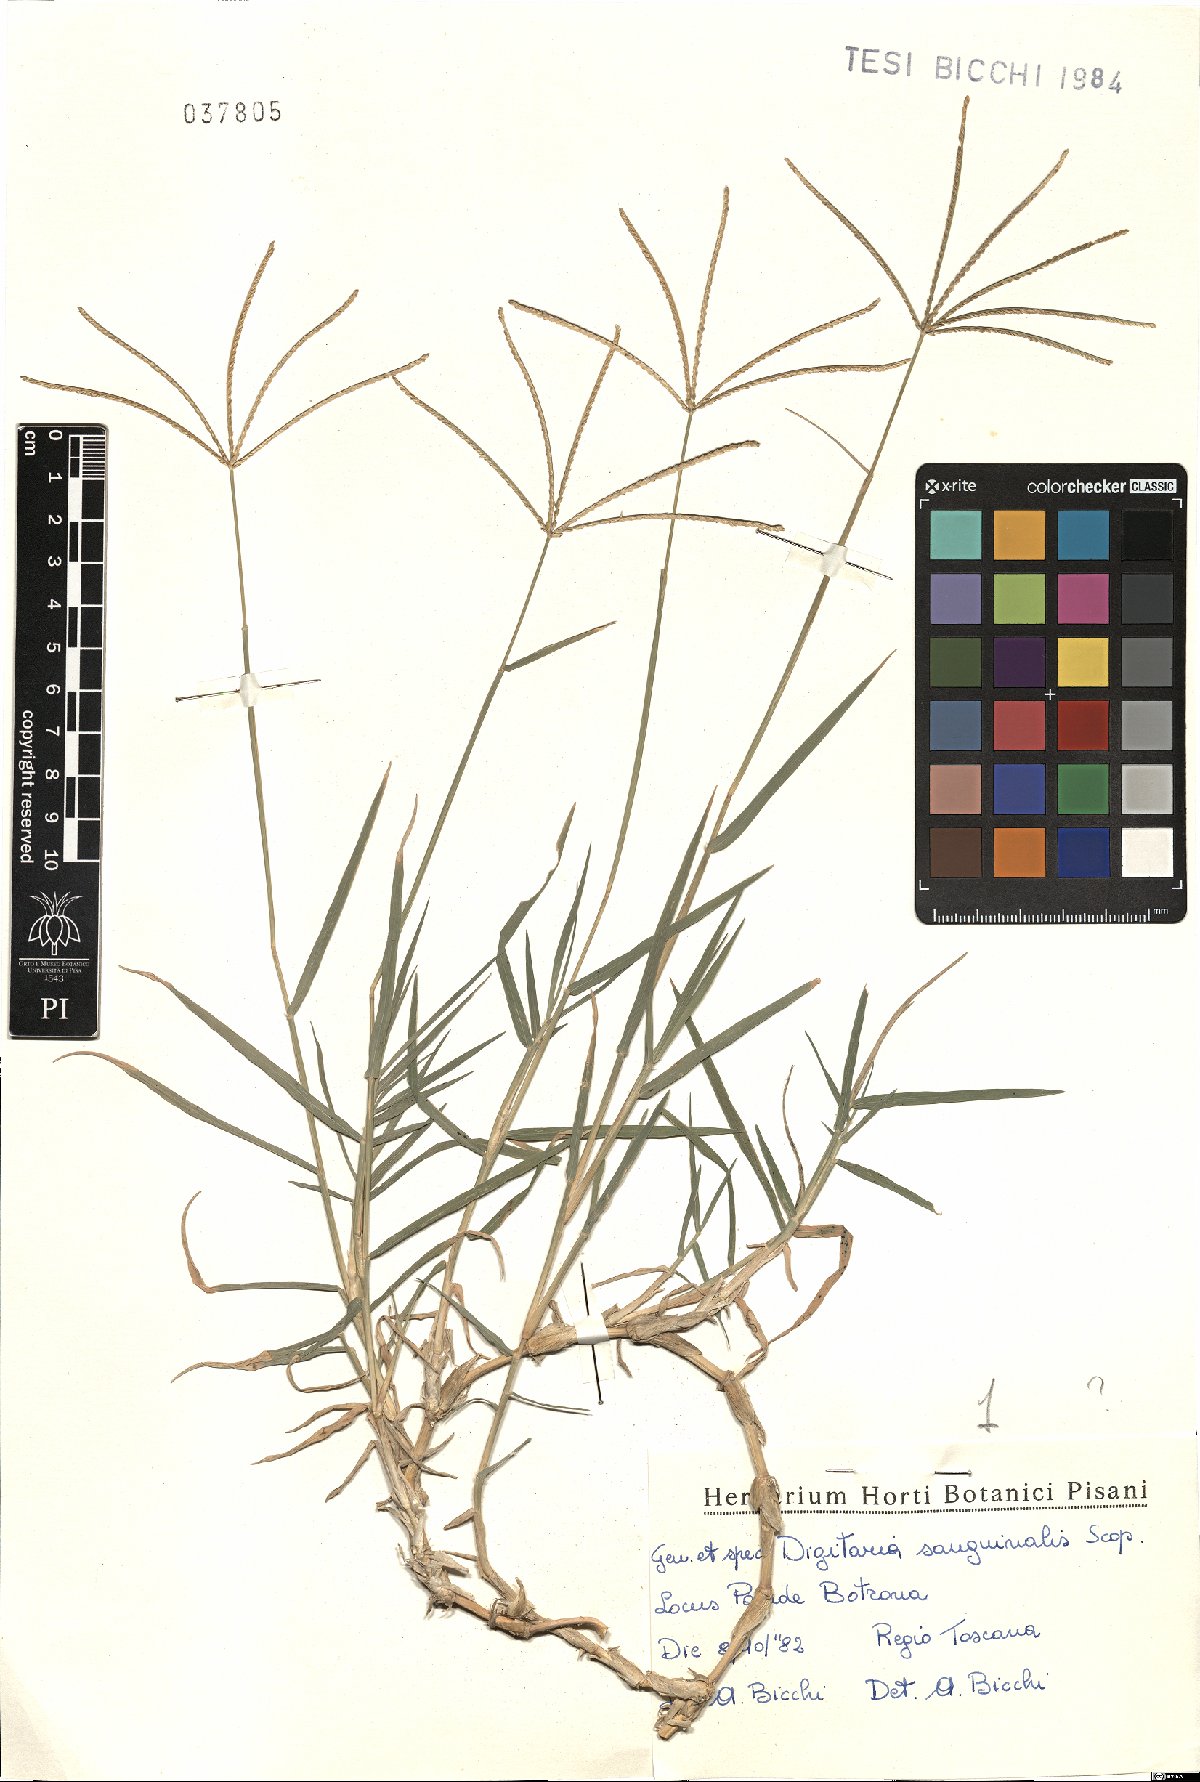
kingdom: Plantae
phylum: Tracheophyta
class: Liliopsida
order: Poales
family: Poaceae
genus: Digitaria
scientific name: Digitaria sanguinalis
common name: Hairy crabgrass
